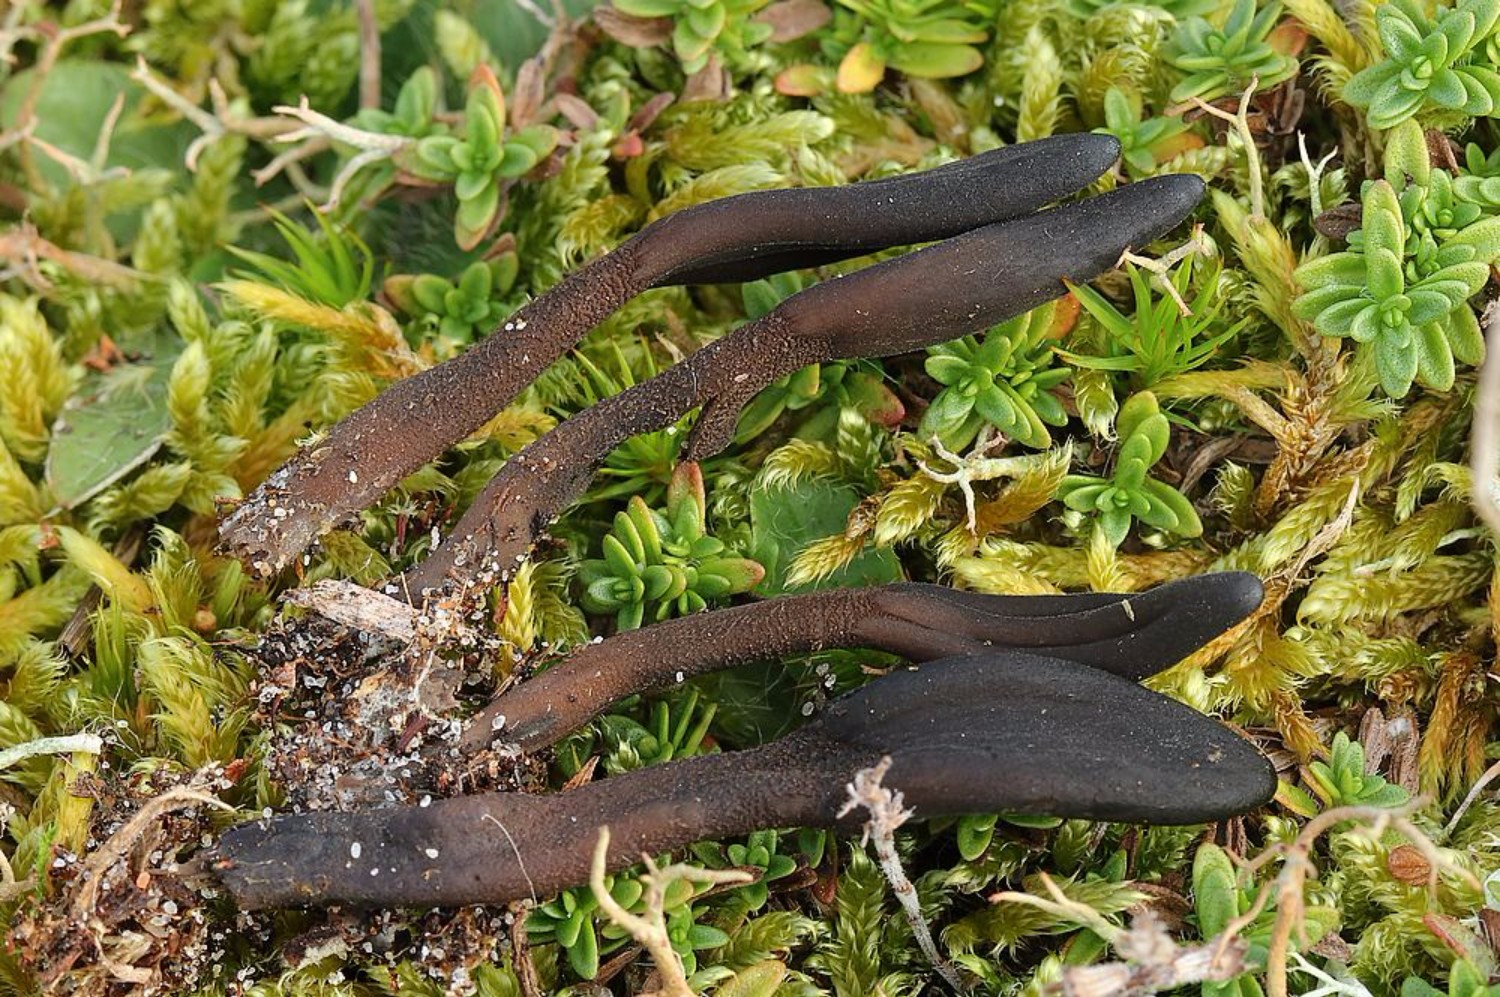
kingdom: Fungi
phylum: Ascomycota
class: Geoglossomycetes
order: Geoglossales
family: Geoglossaceae
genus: Hemileucoglossum
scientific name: Hemileucoglossum elongatum
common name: småsporet jordtunge
